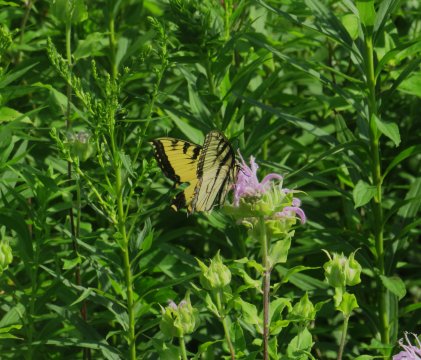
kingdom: Animalia
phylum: Arthropoda
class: Insecta
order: Lepidoptera
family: Papilionidae
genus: Pterourus
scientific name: Pterourus glaucus
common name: Eastern Tiger Swallowtail
